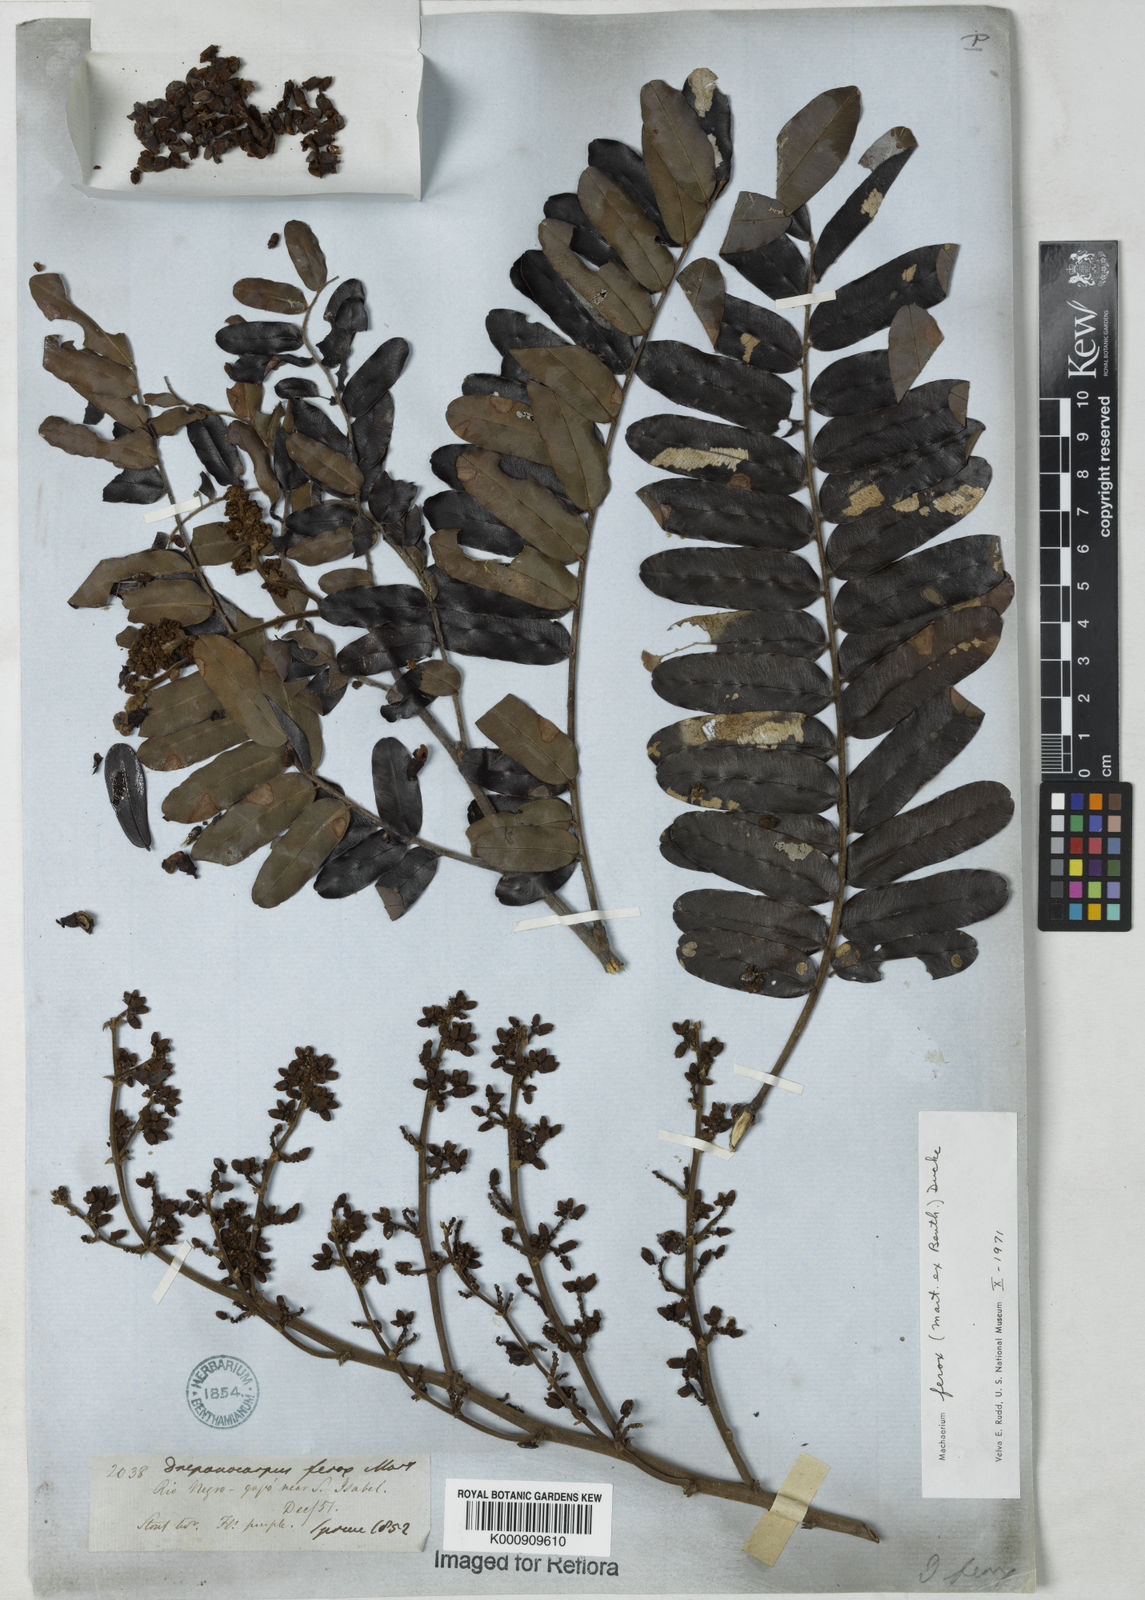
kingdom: Plantae
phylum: Tracheophyta
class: Magnoliopsida
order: Fabales
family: Fabaceae
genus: Machaerium
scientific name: Machaerium ferox
